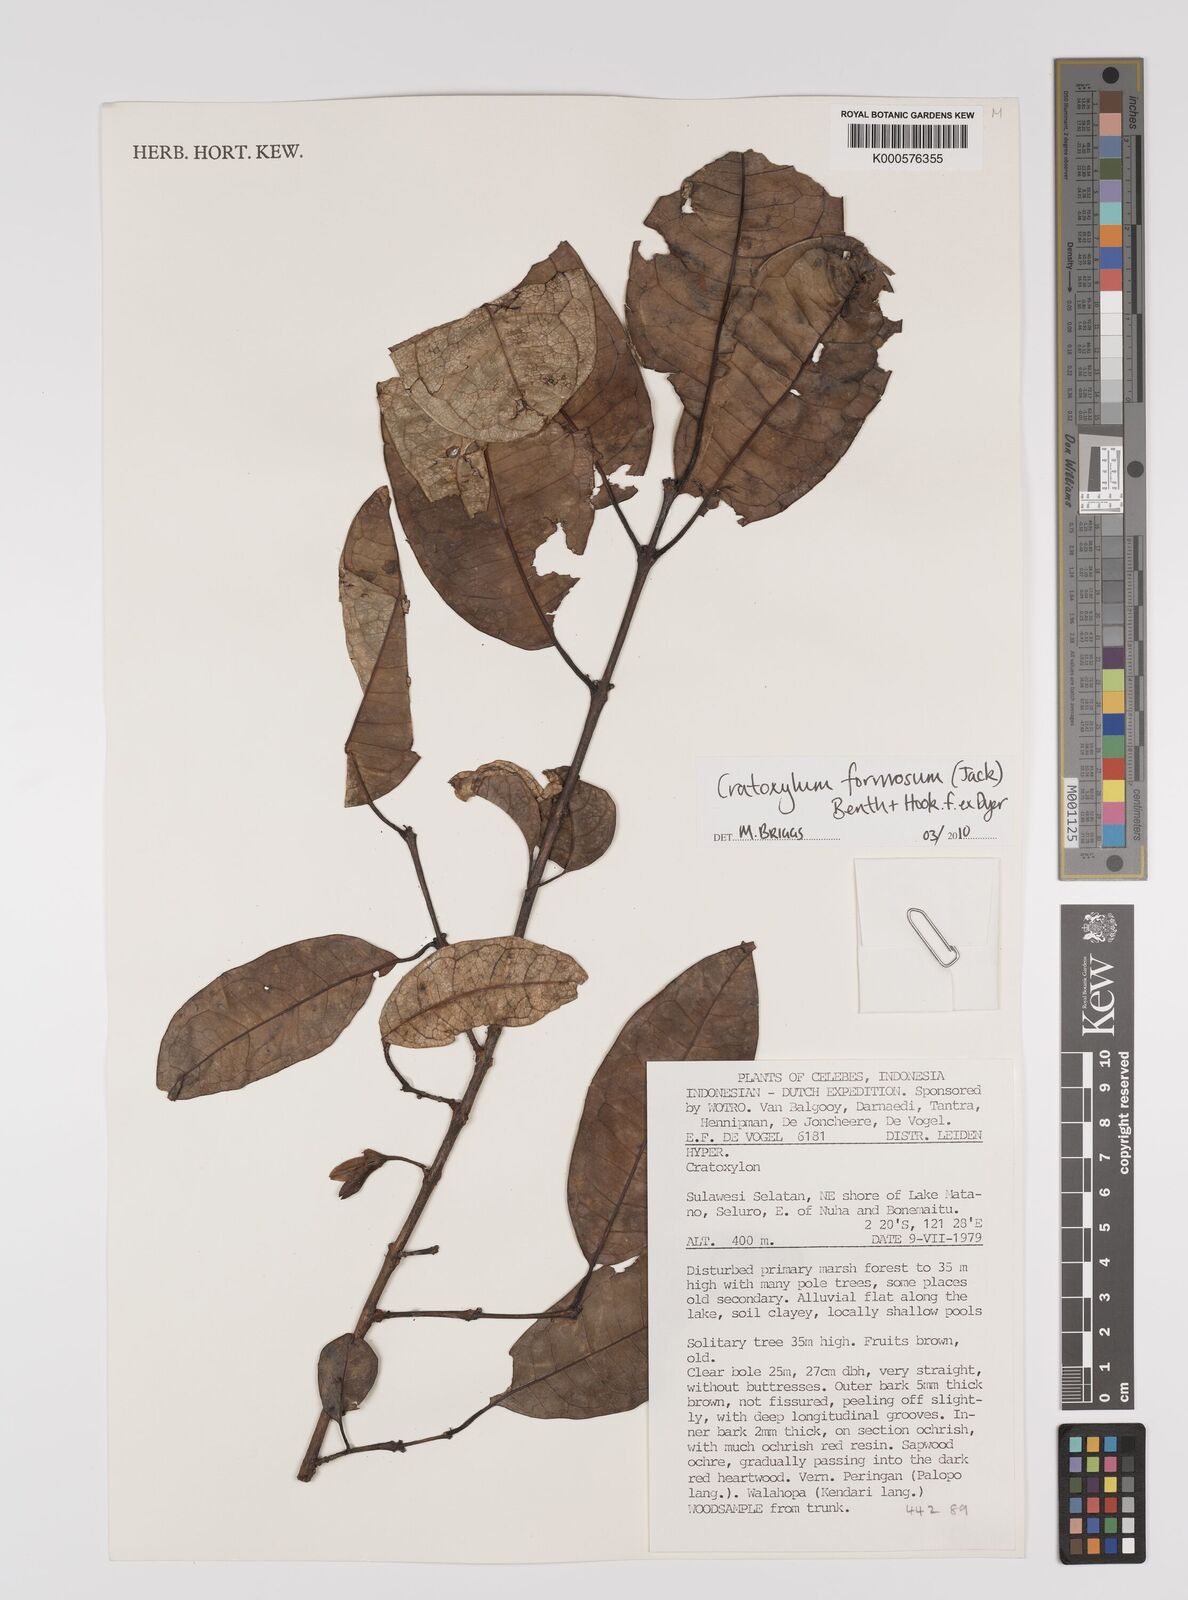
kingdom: Plantae
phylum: Tracheophyta
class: Magnoliopsida
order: Malpighiales
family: Hypericaceae
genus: Cratoxylum
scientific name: Cratoxylum formosum
